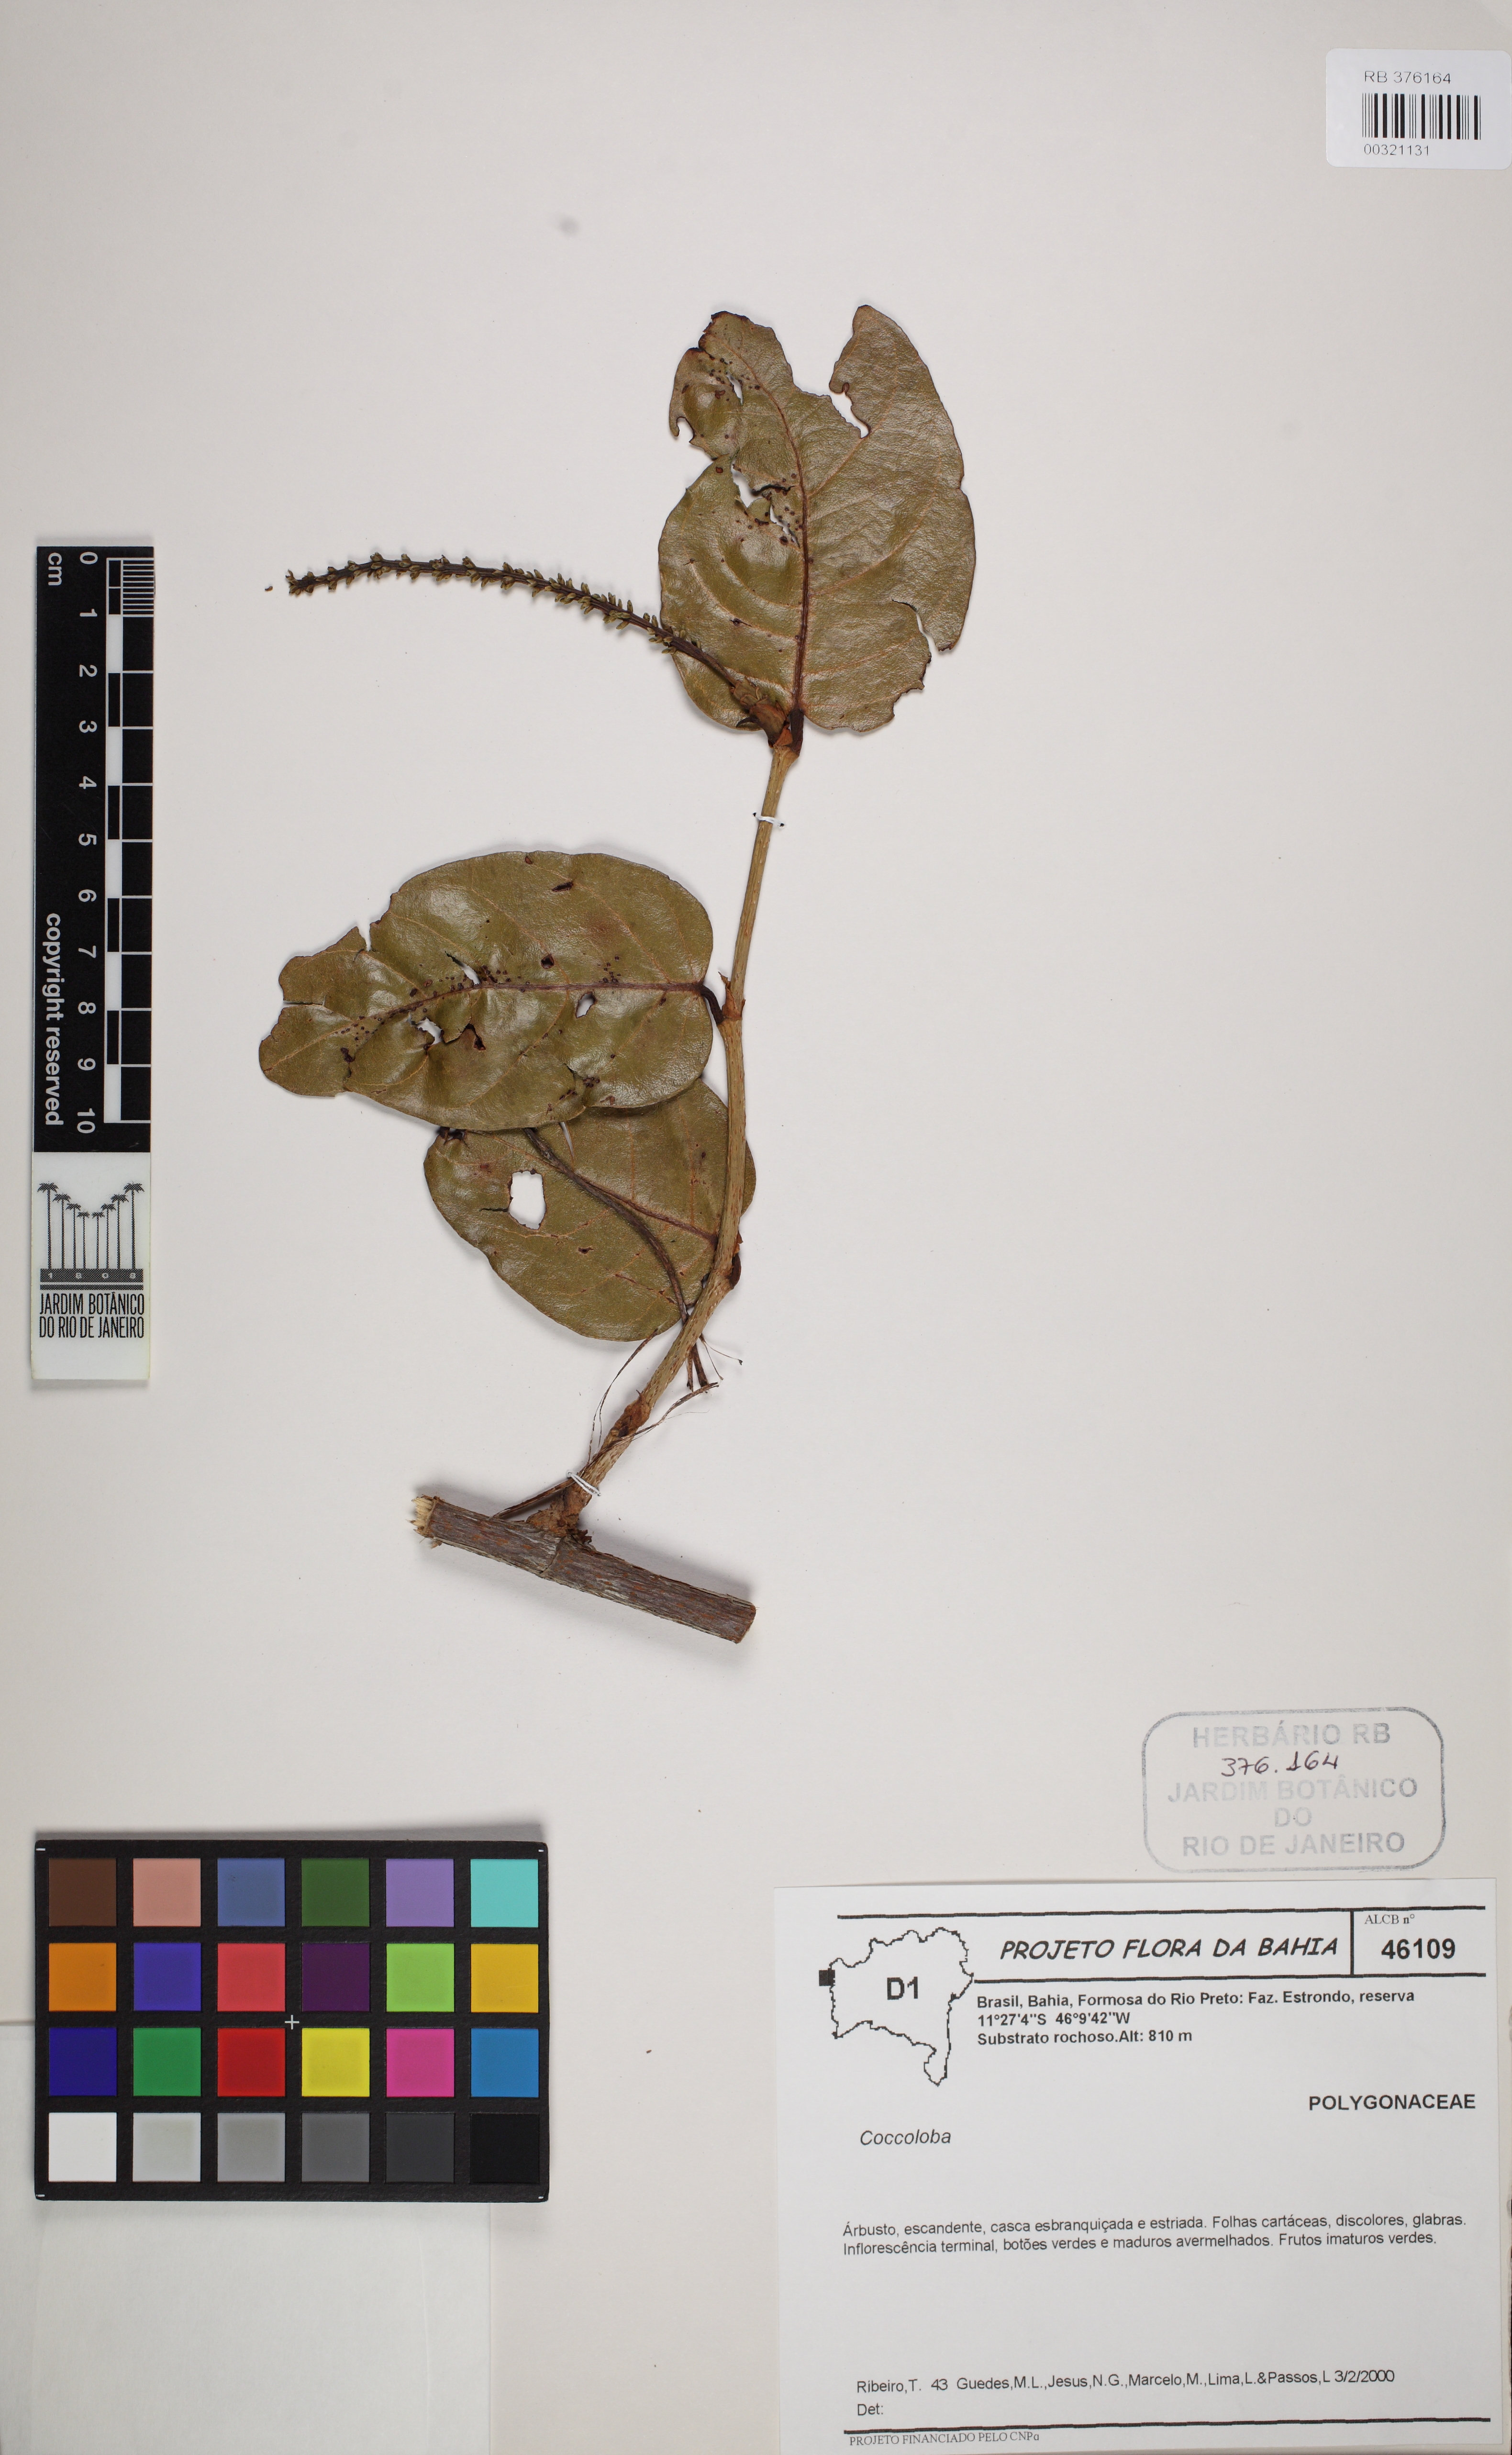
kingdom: Plantae
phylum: Tracheophyta
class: Magnoliopsida
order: Caryophyllales
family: Polygonaceae
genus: Coccoloba
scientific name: Coccoloba
